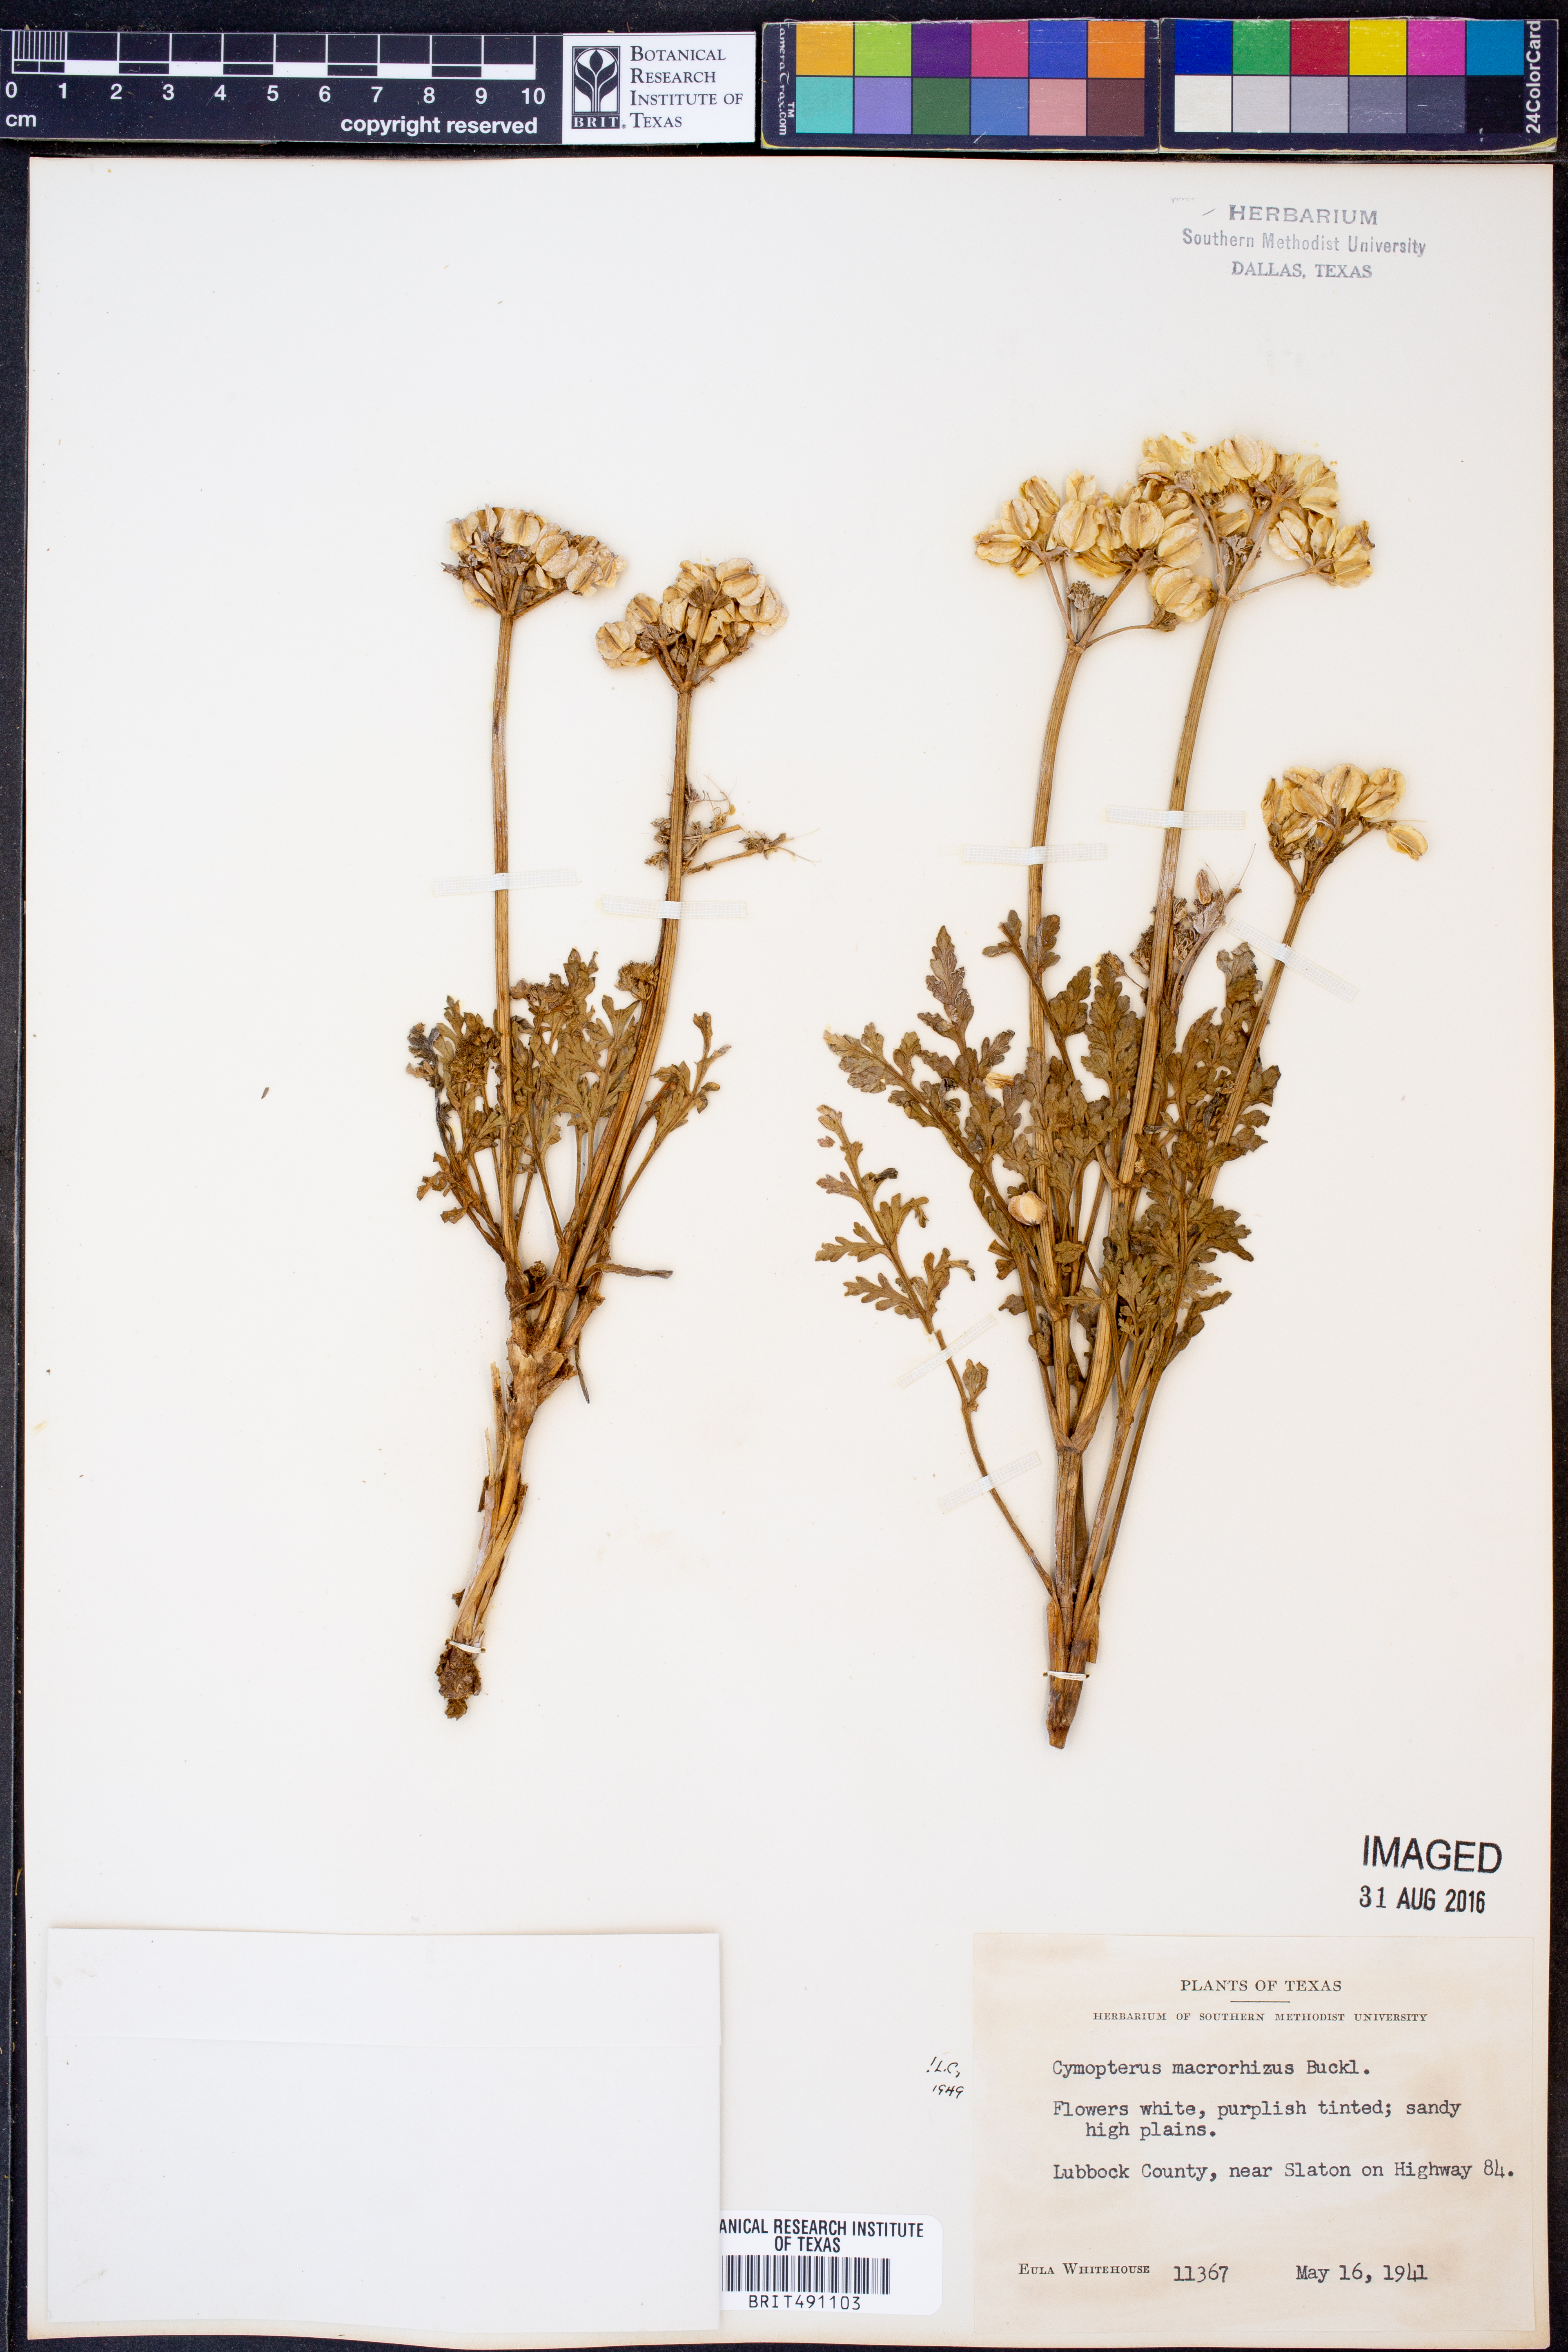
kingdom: Plantae
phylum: Tracheophyta
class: Magnoliopsida
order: Apiales
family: Apiaceae
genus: Vesper
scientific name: Vesper macrorhizus
